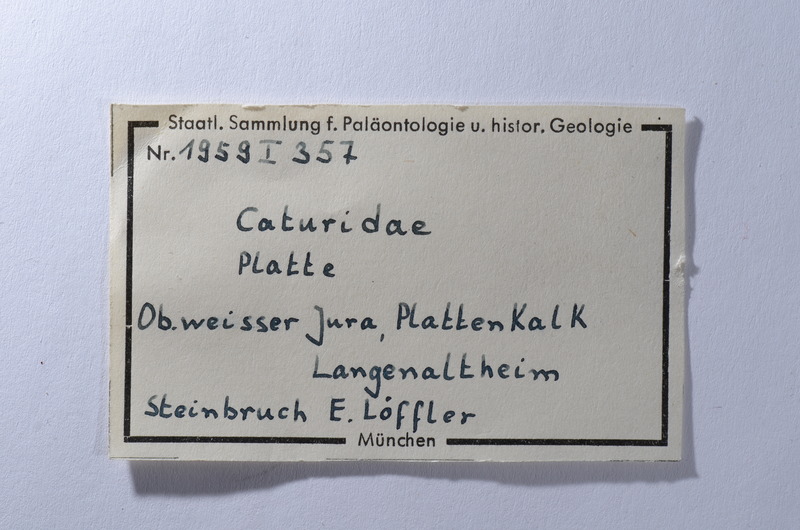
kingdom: Animalia
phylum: Chordata
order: Amiiformes
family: Caturidae
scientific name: Caturidae
